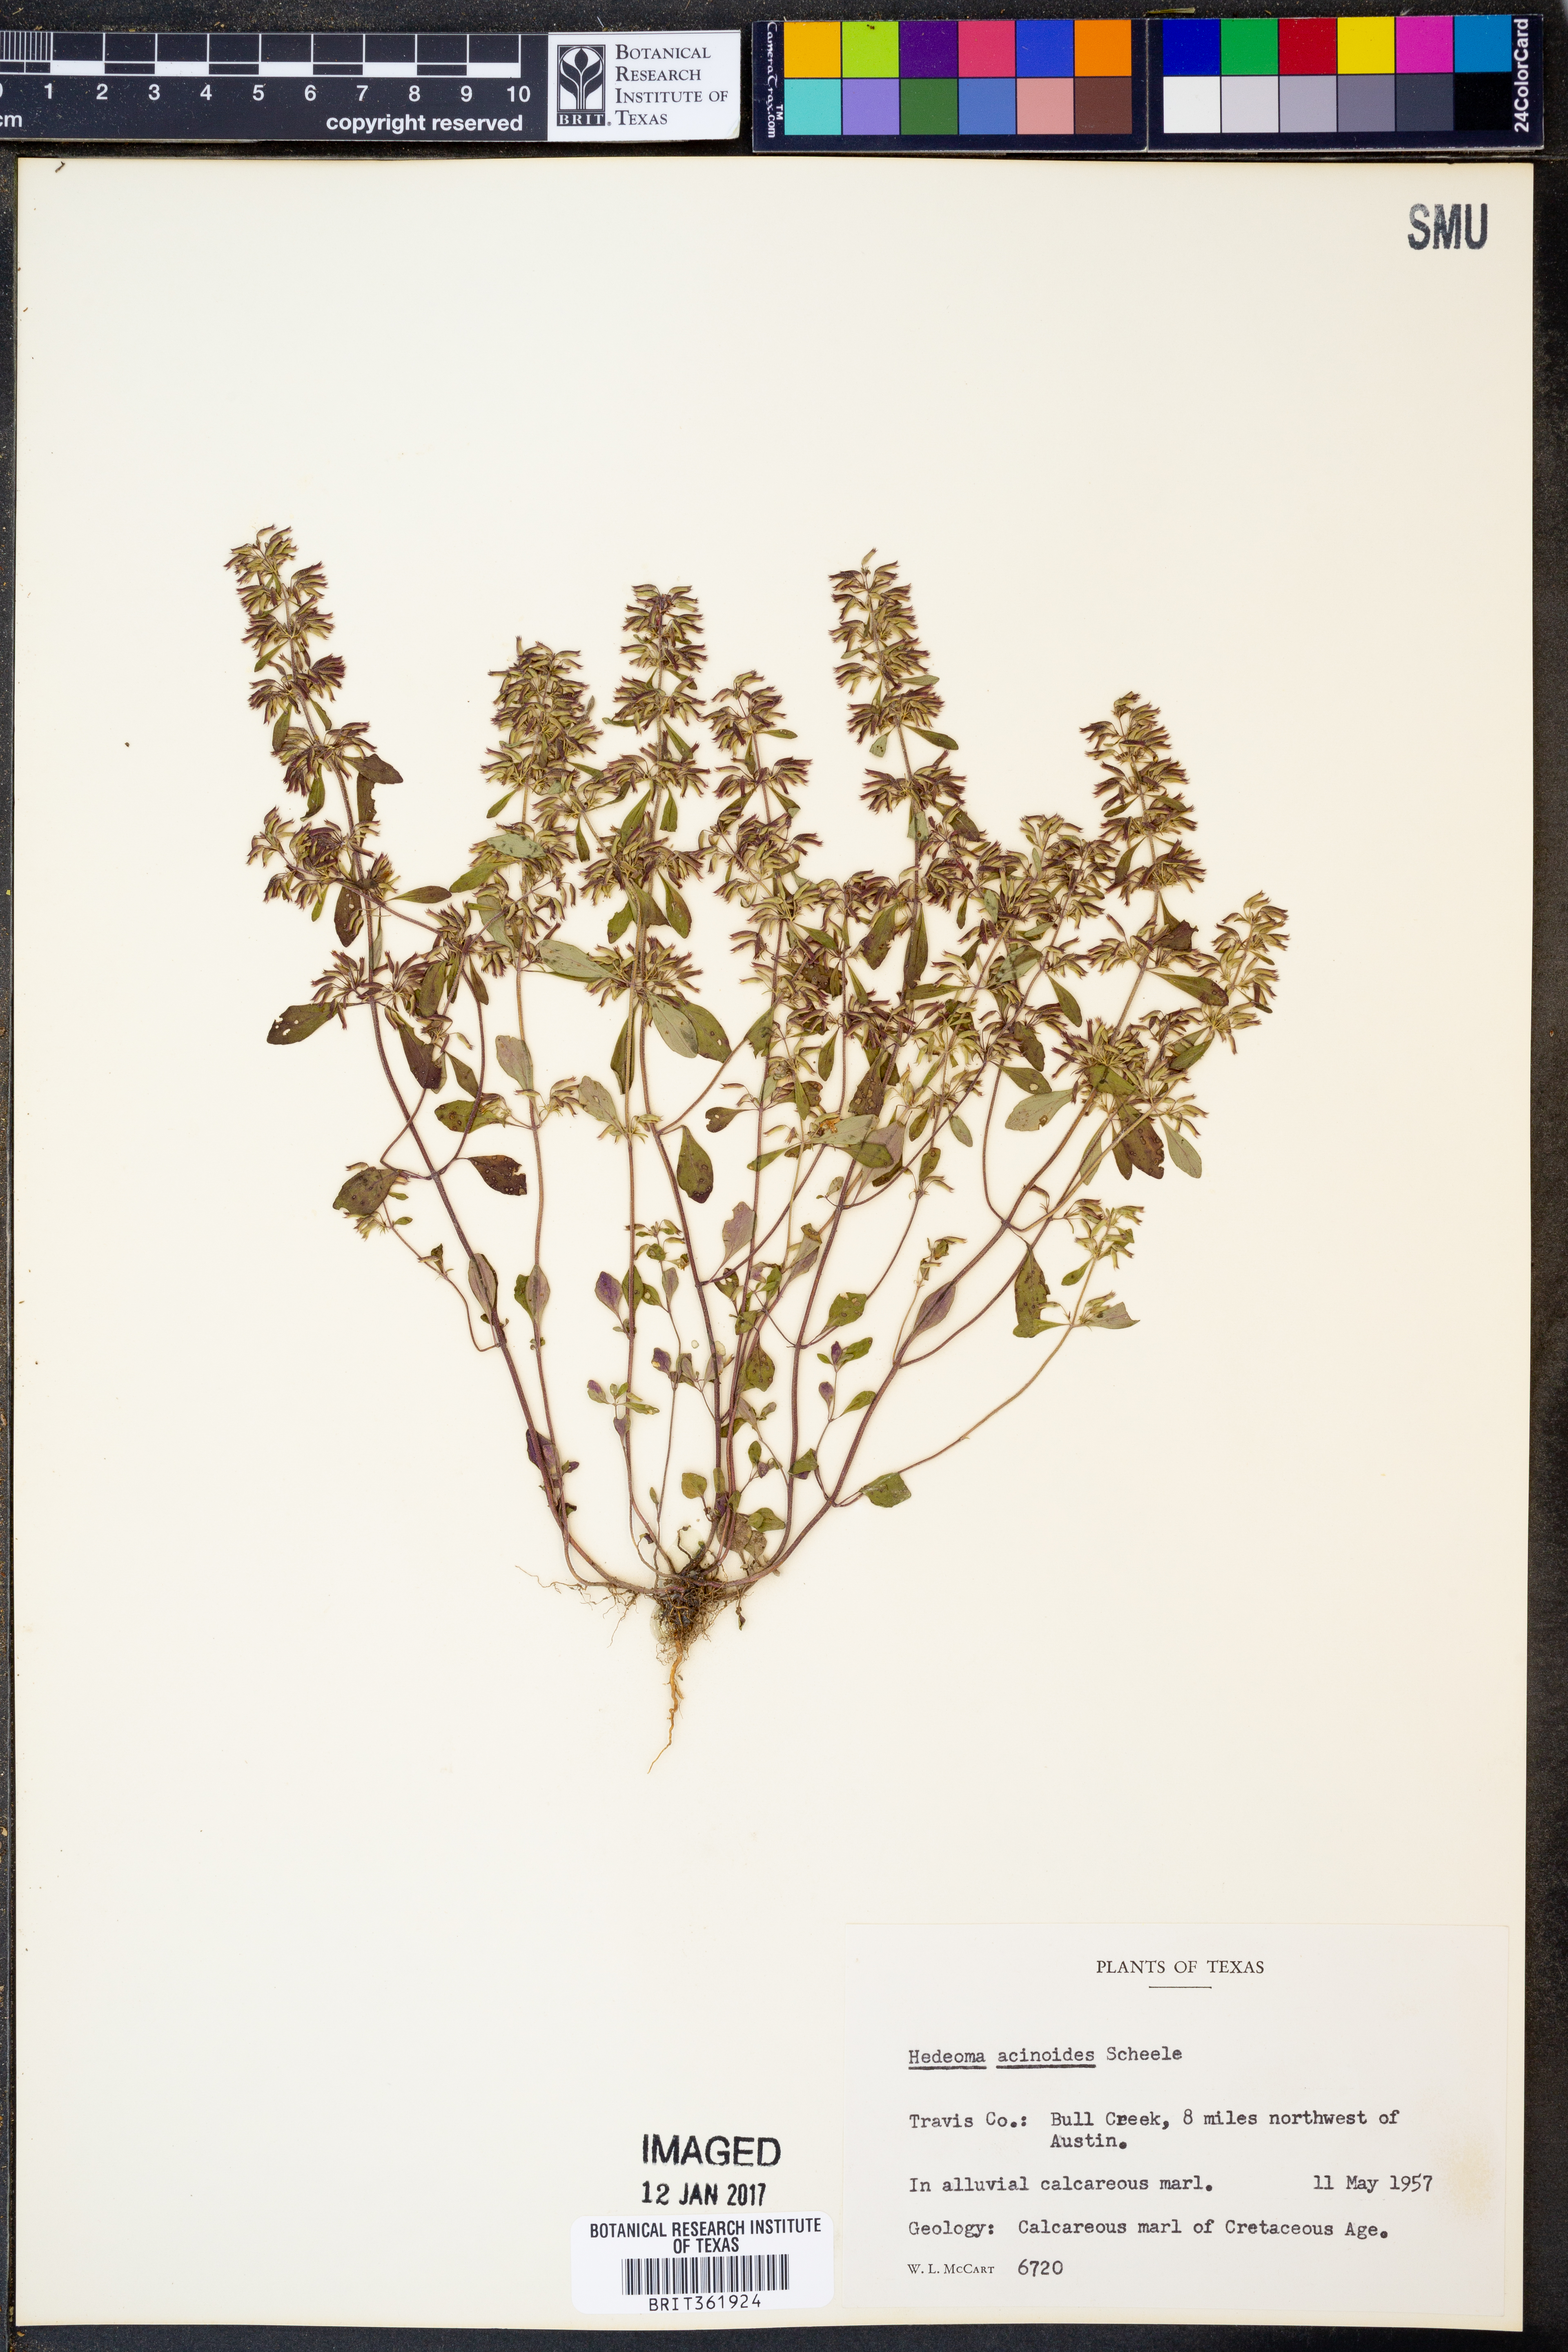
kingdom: Plantae
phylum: Tracheophyta
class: Magnoliopsida
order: Lamiales
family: Lamiaceae
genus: Hedeoma
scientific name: Hedeoma acinoides
